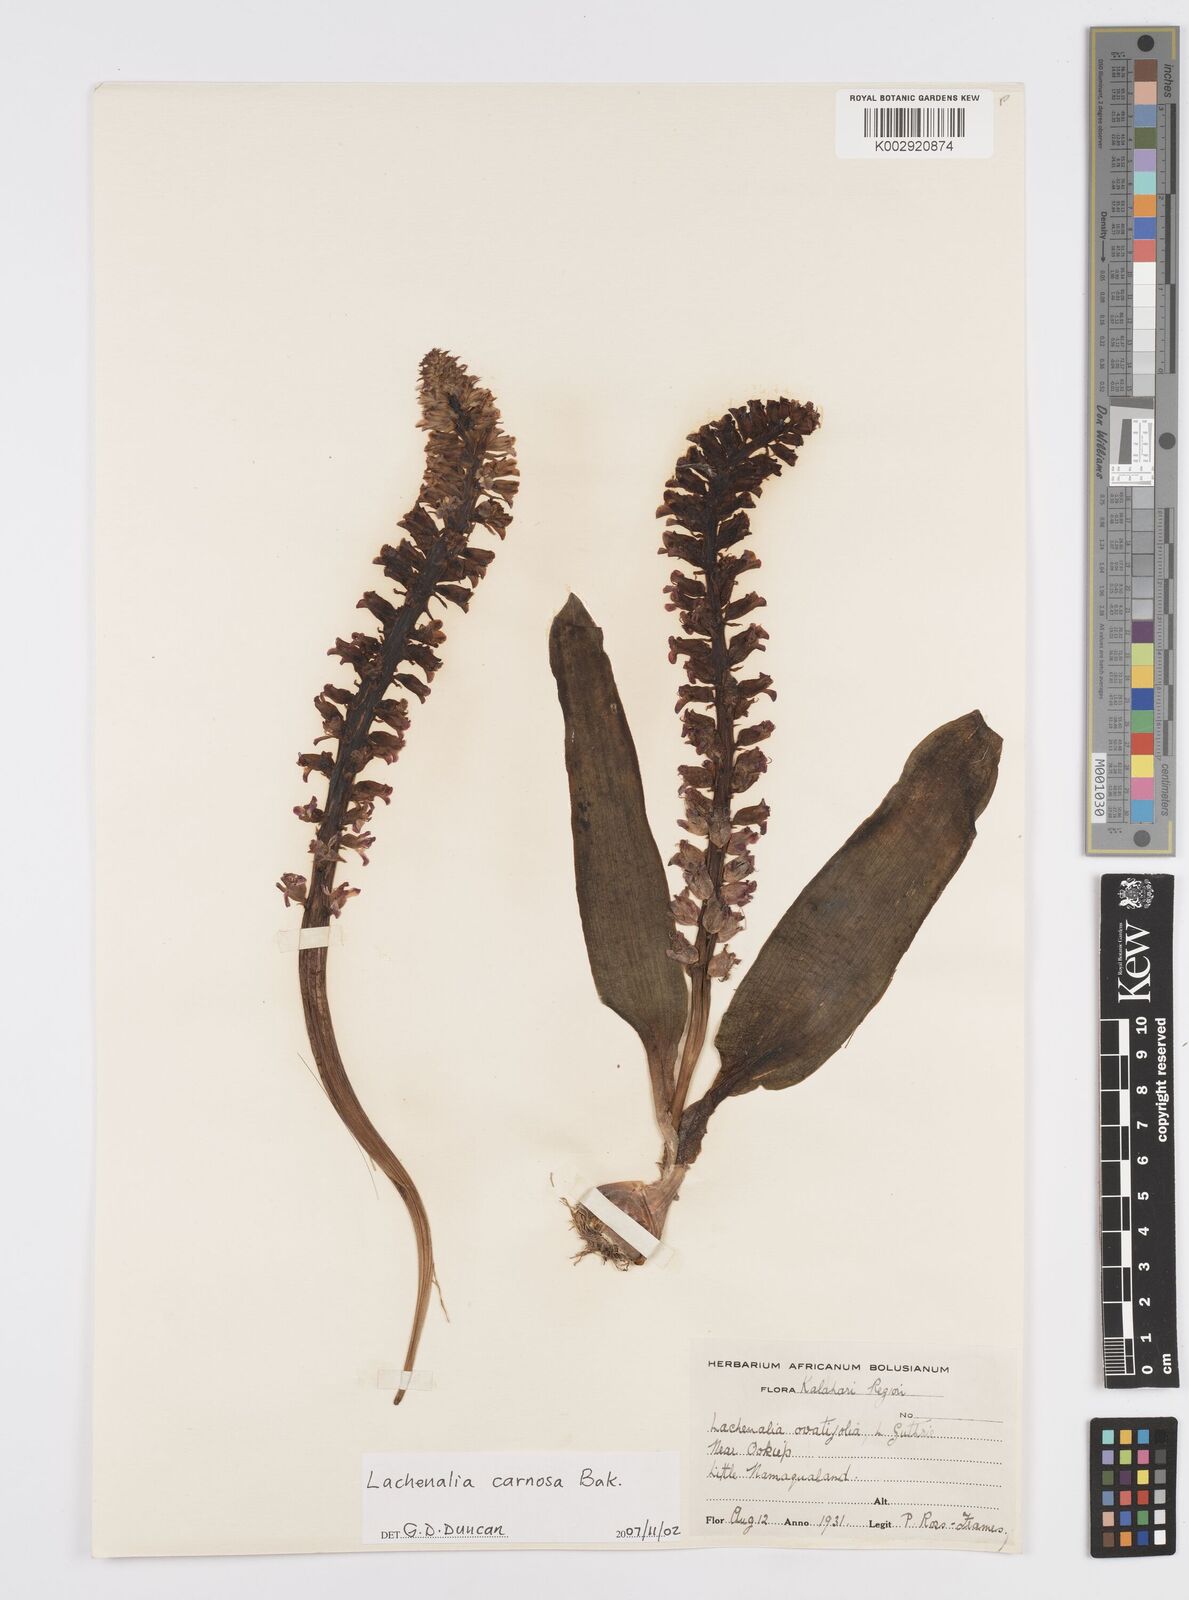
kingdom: Plantae
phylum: Tracheophyta
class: Liliopsida
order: Asparagales
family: Asparagaceae
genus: Lachenalia
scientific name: Lachenalia carnosa
